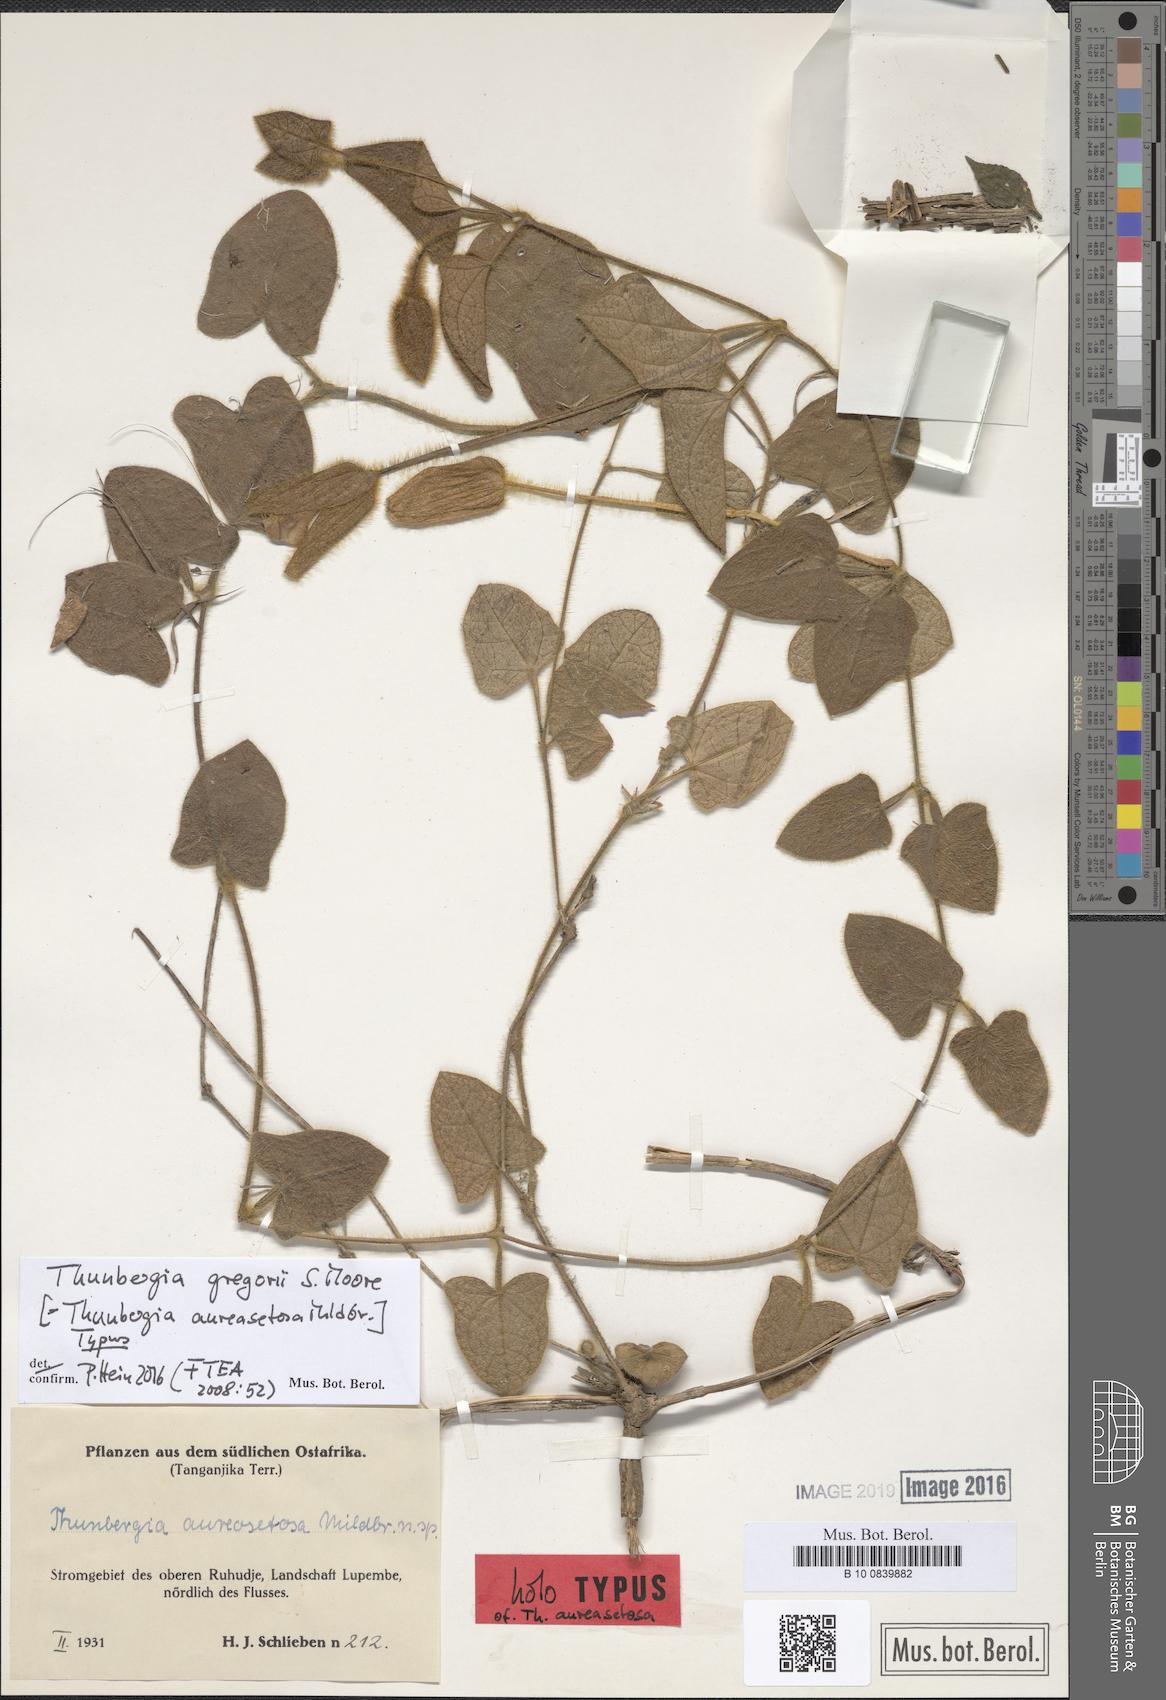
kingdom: Plantae
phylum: Tracheophyta
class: Magnoliopsida
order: Lamiales
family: Acanthaceae
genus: Thunbergia
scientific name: Thunbergia gregorii
